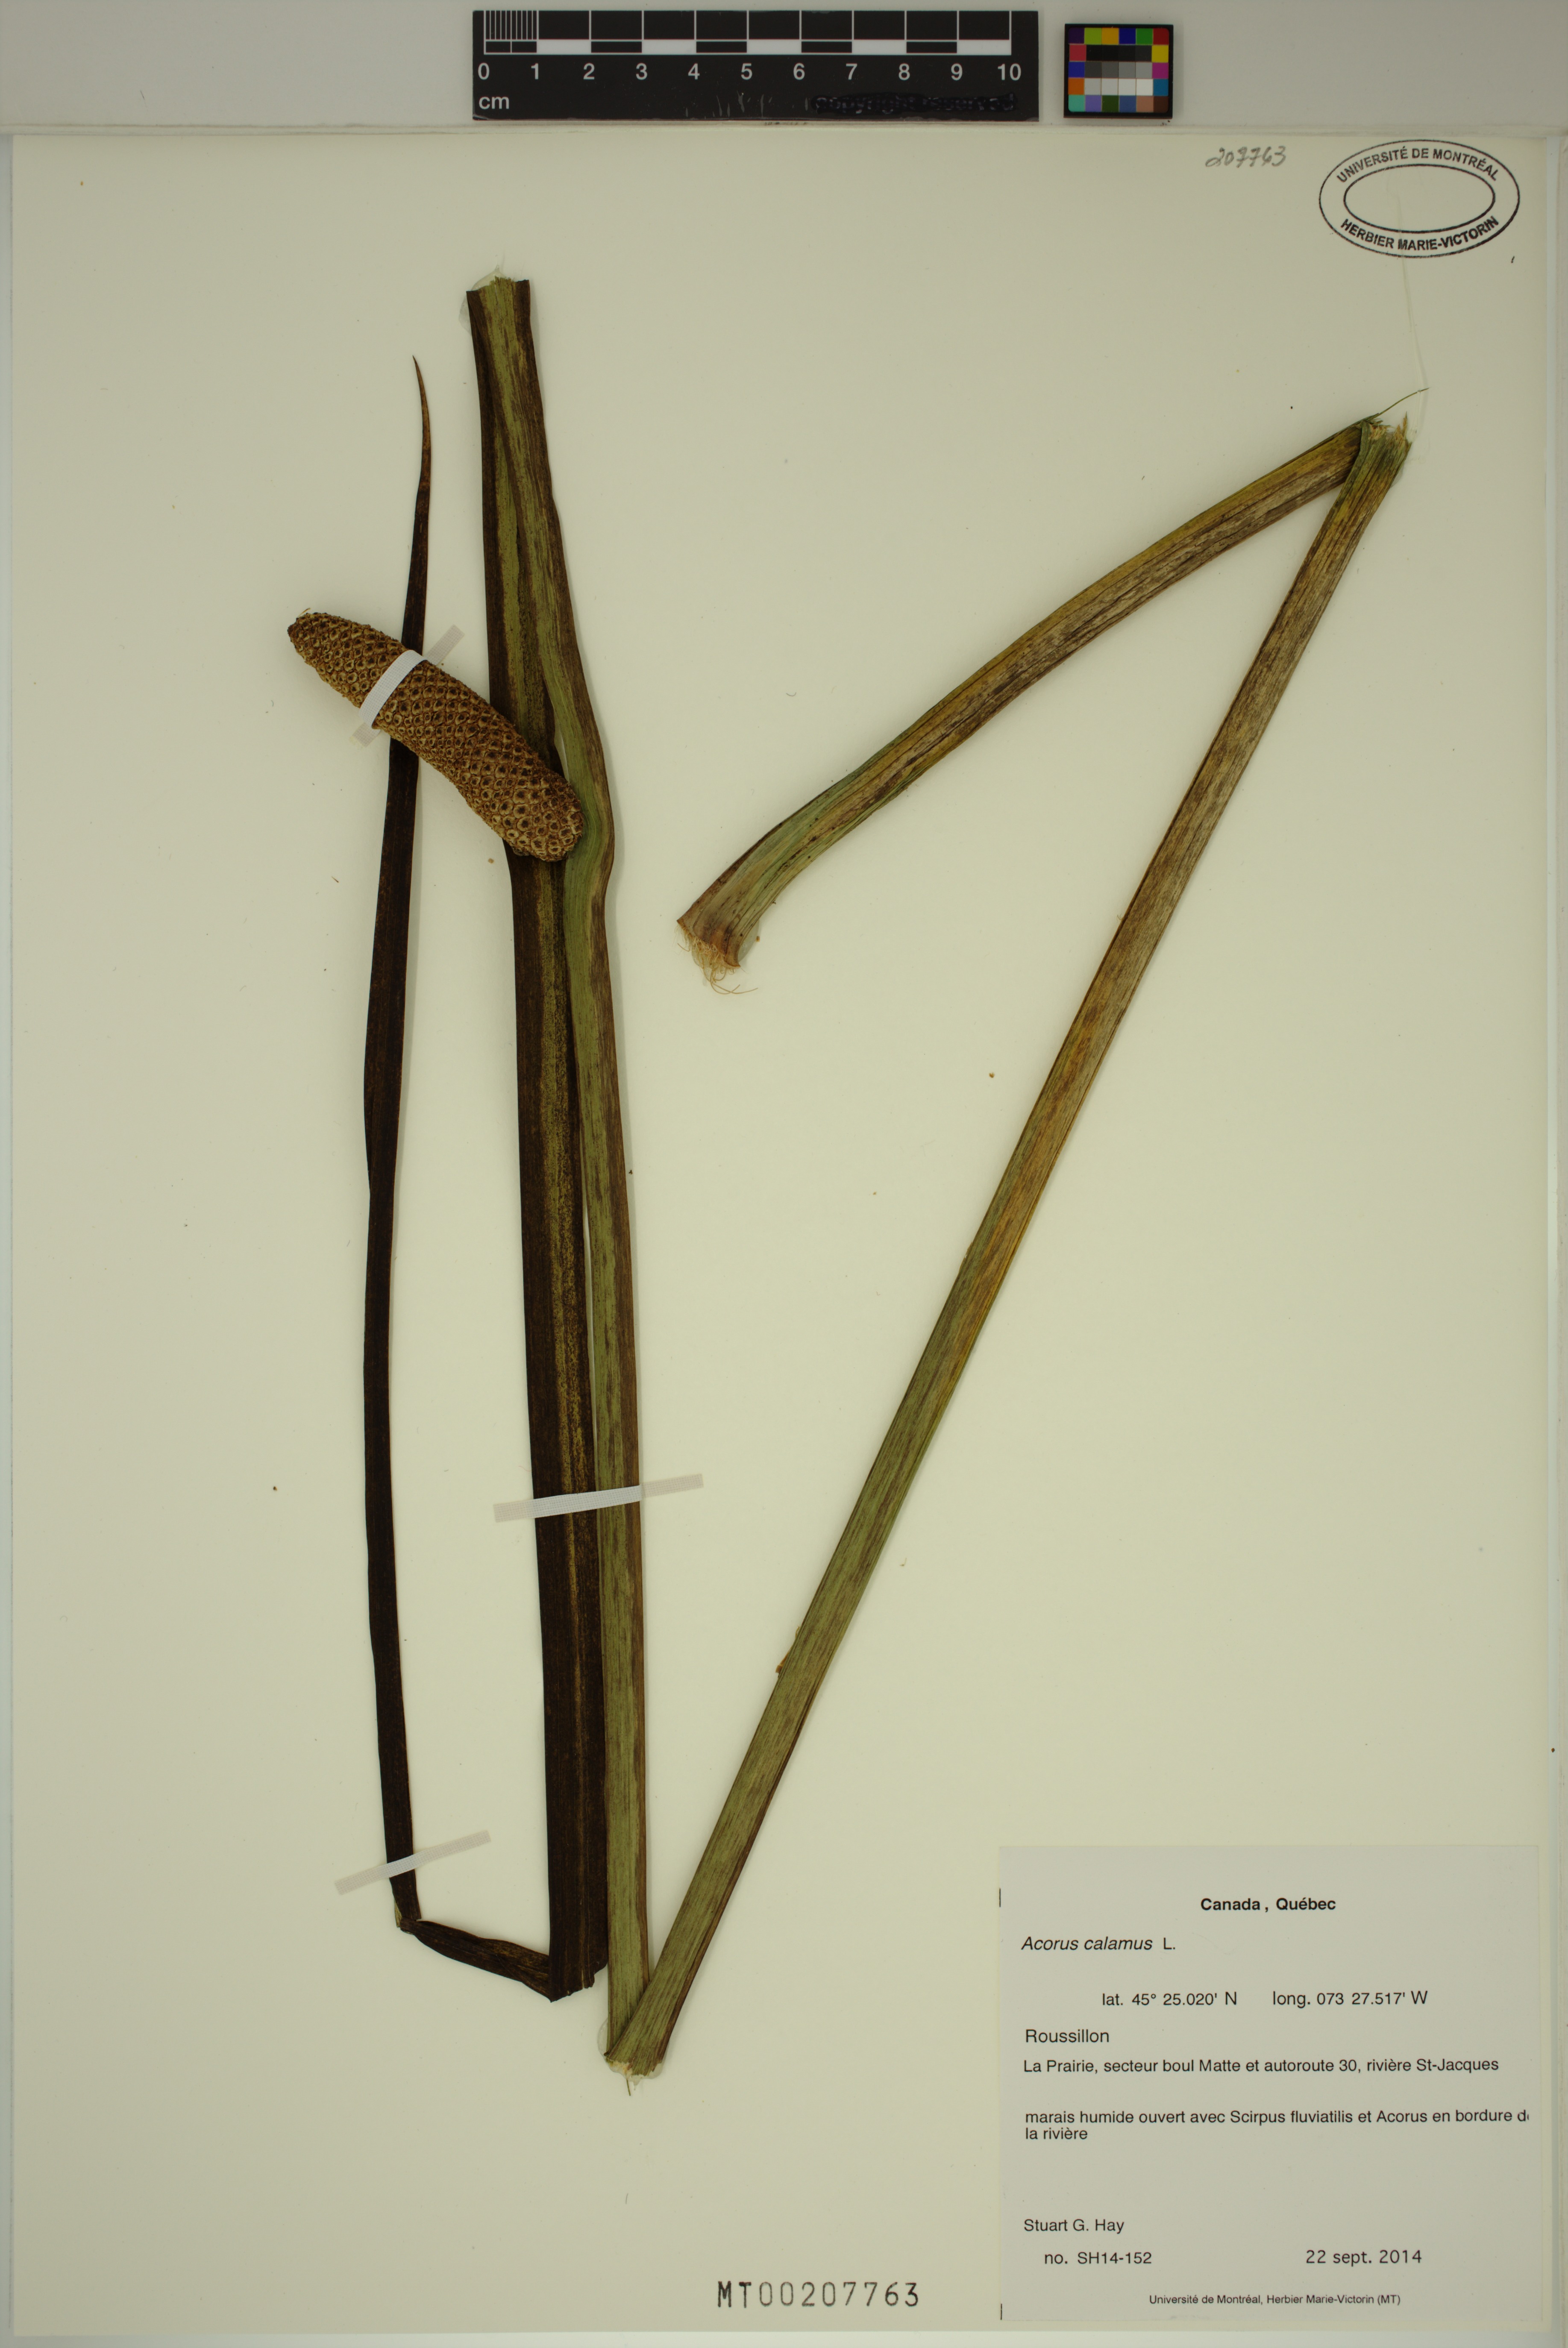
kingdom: Plantae
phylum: Tracheophyta
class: Liliopsida
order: Acorales
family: Acoraceae
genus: Acorus
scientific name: Acorus calamus
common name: Sweet-flag
